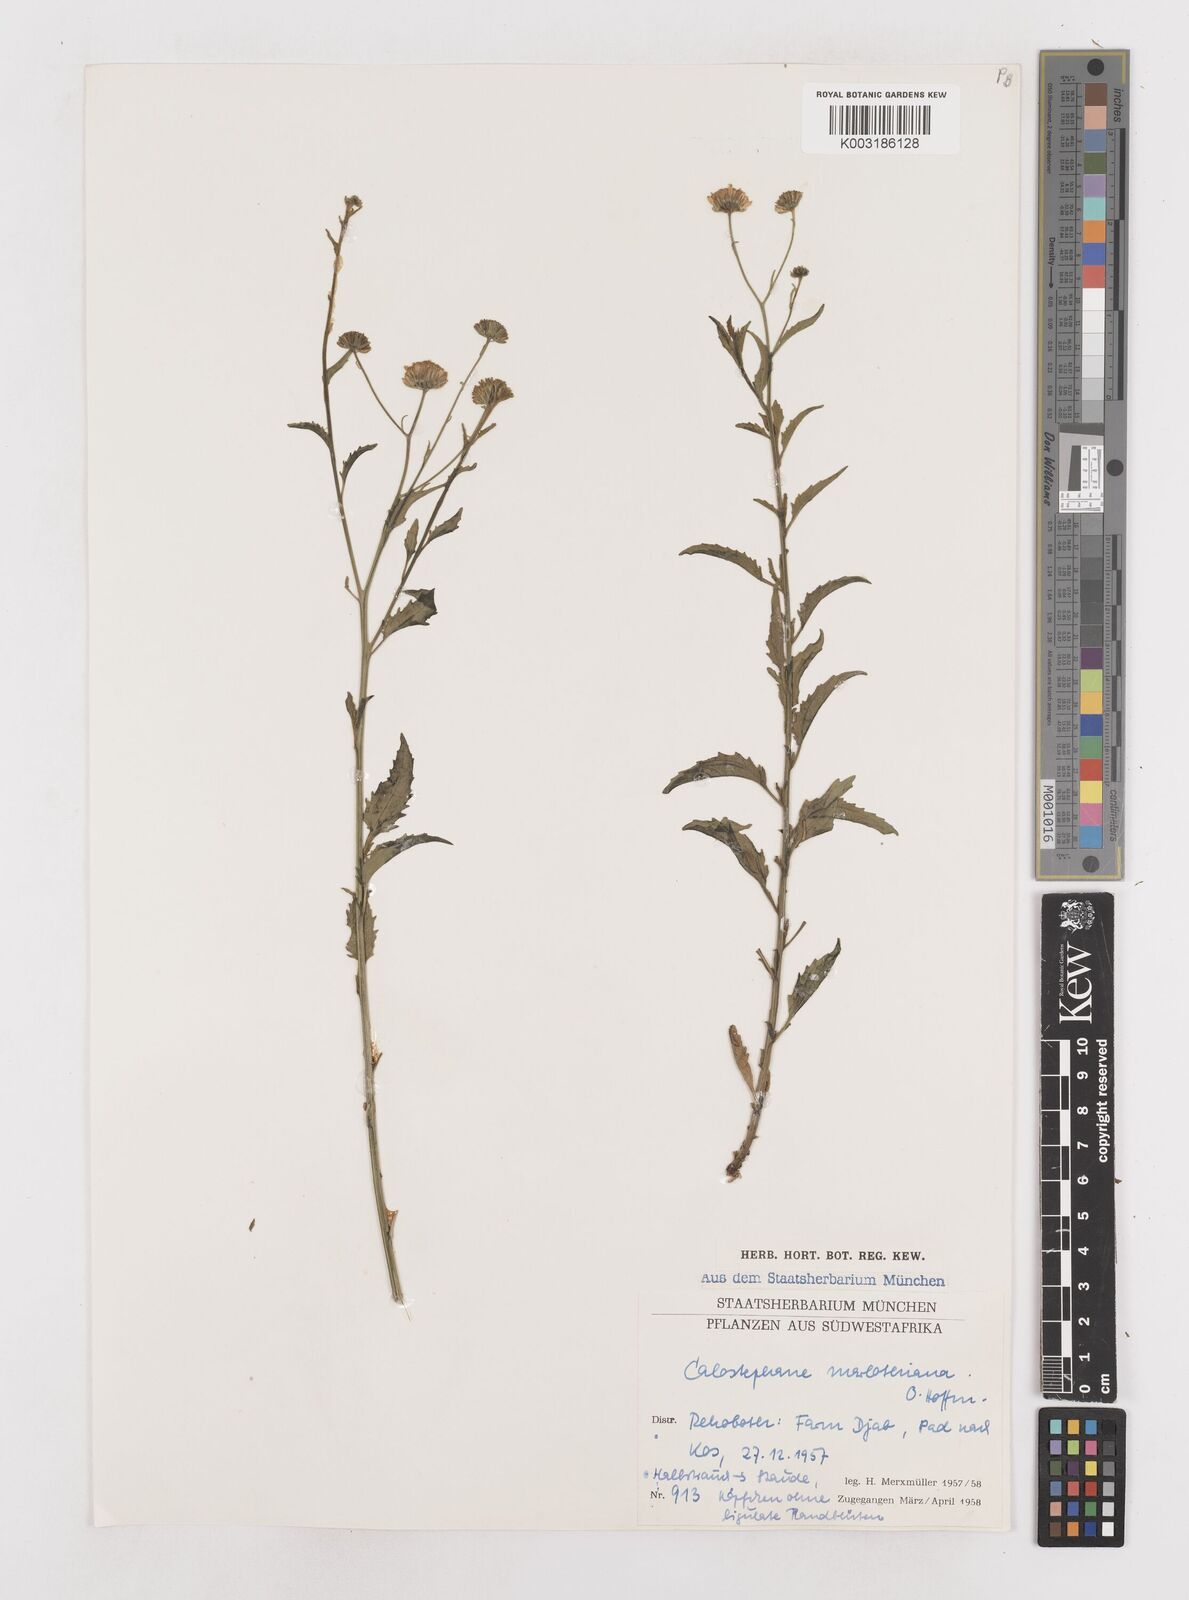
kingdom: Plantae
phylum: Tracheophyta
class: Magnoliopsida
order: Asterales
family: Asteraceae
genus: Calostephane
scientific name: Calostephane marlothiana
